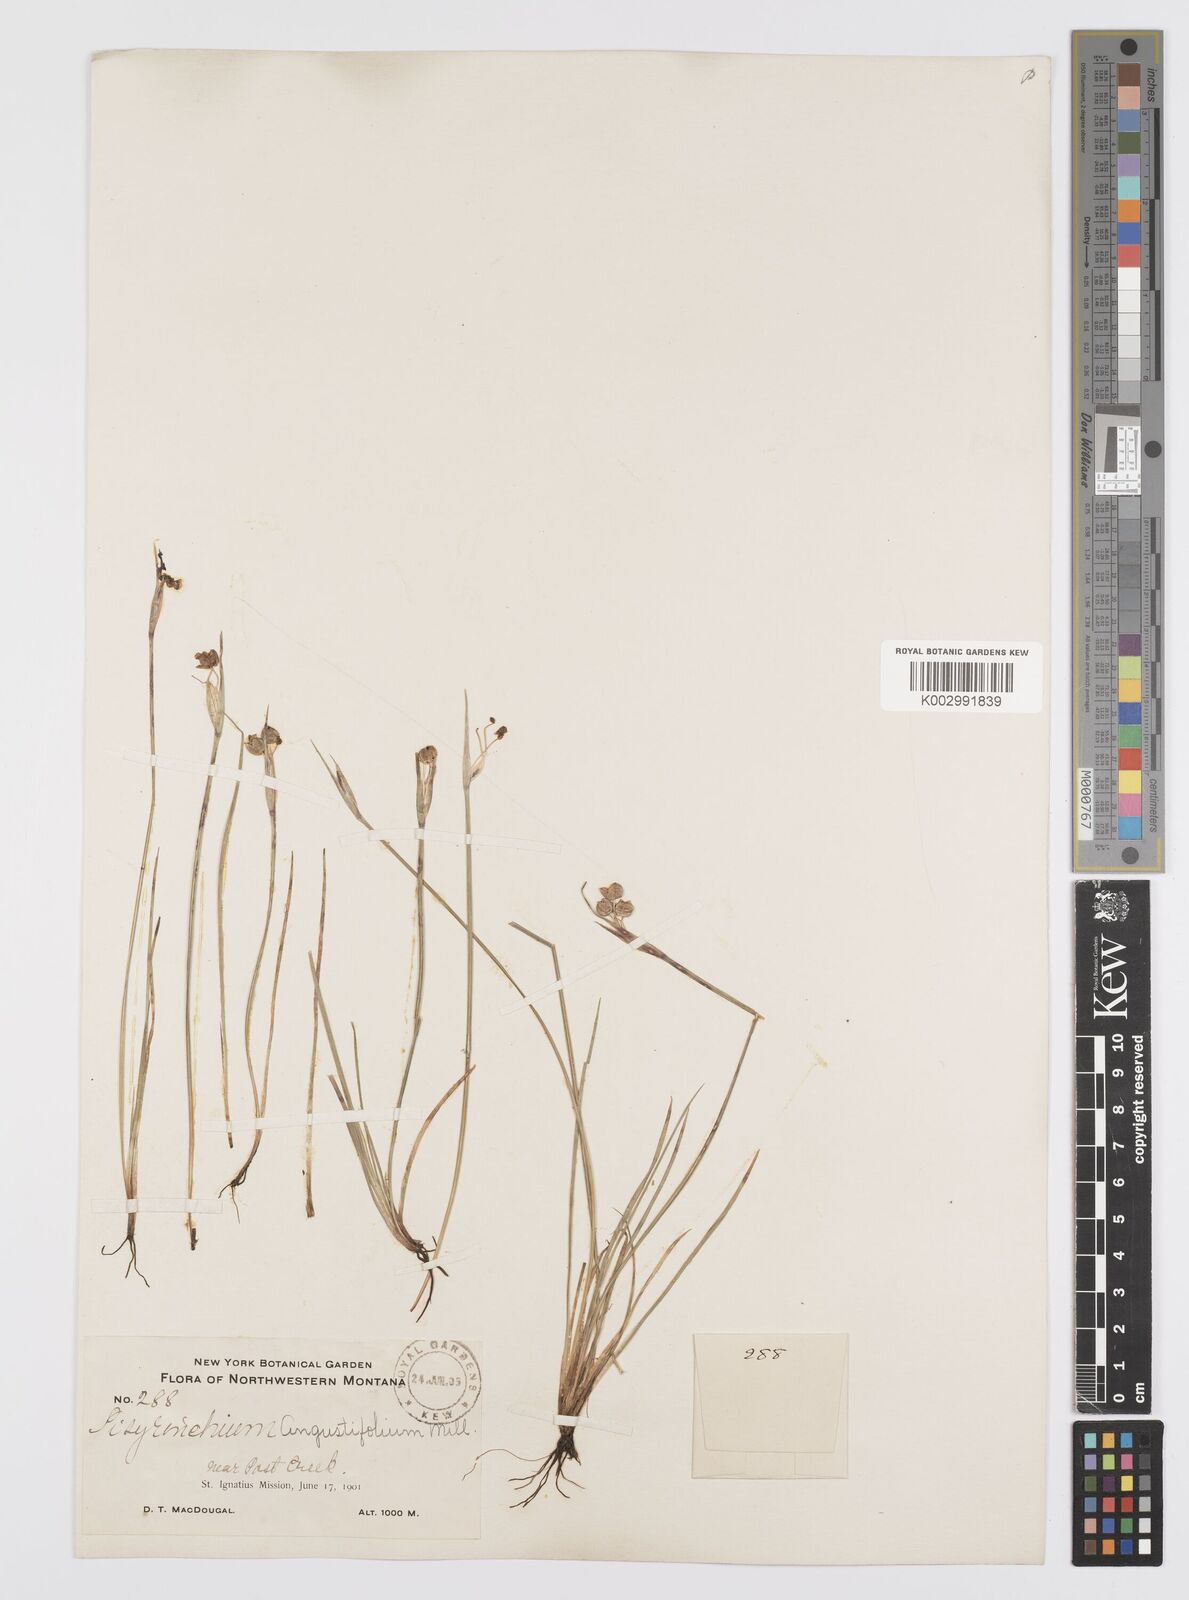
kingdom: Plantae
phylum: Tracheophyta
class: Liliopsida
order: Asparagales
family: Iridaceae
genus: Sisyrinchium
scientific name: Sisyrinchium bermudiana
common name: Blue-eyed-grass
